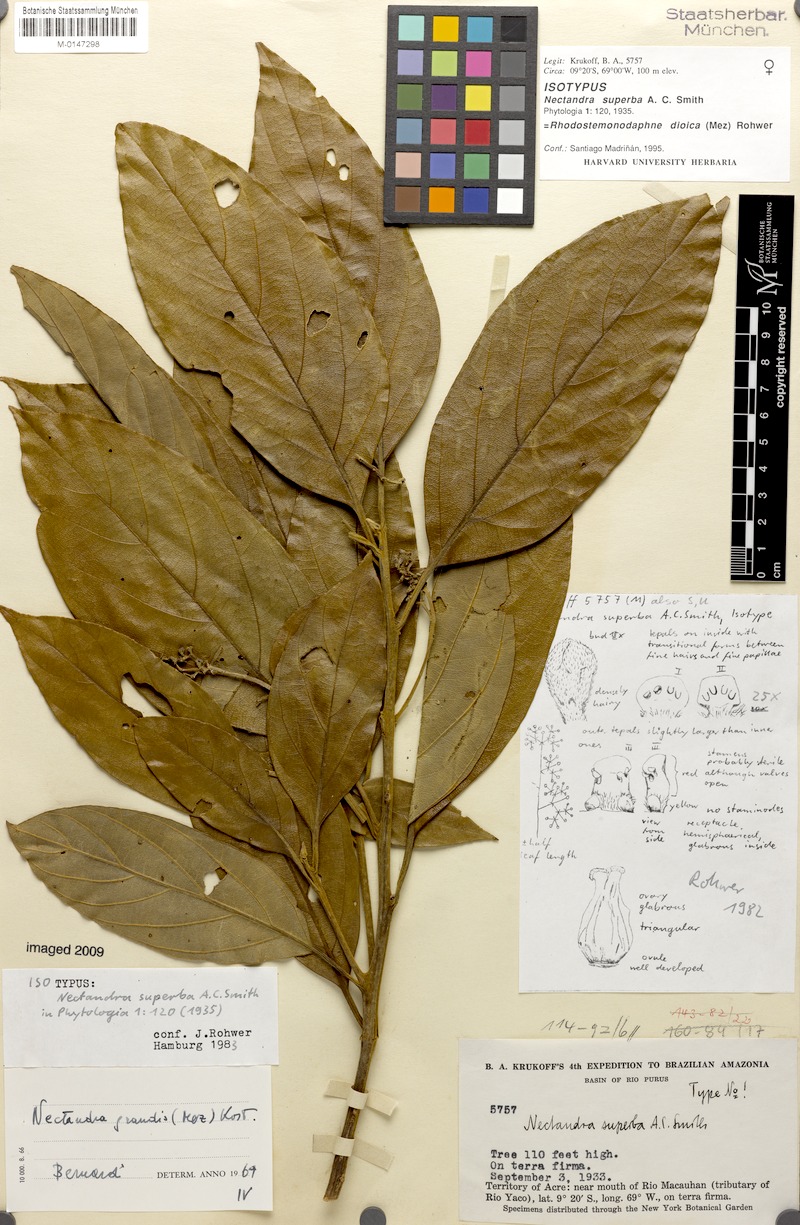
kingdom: Plantae
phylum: Tracheophyta
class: Magnoliopsida
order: Laurales
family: Lauraceae
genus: Rhodostemonodaphne
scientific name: Rhodostemonodaphne dioica
